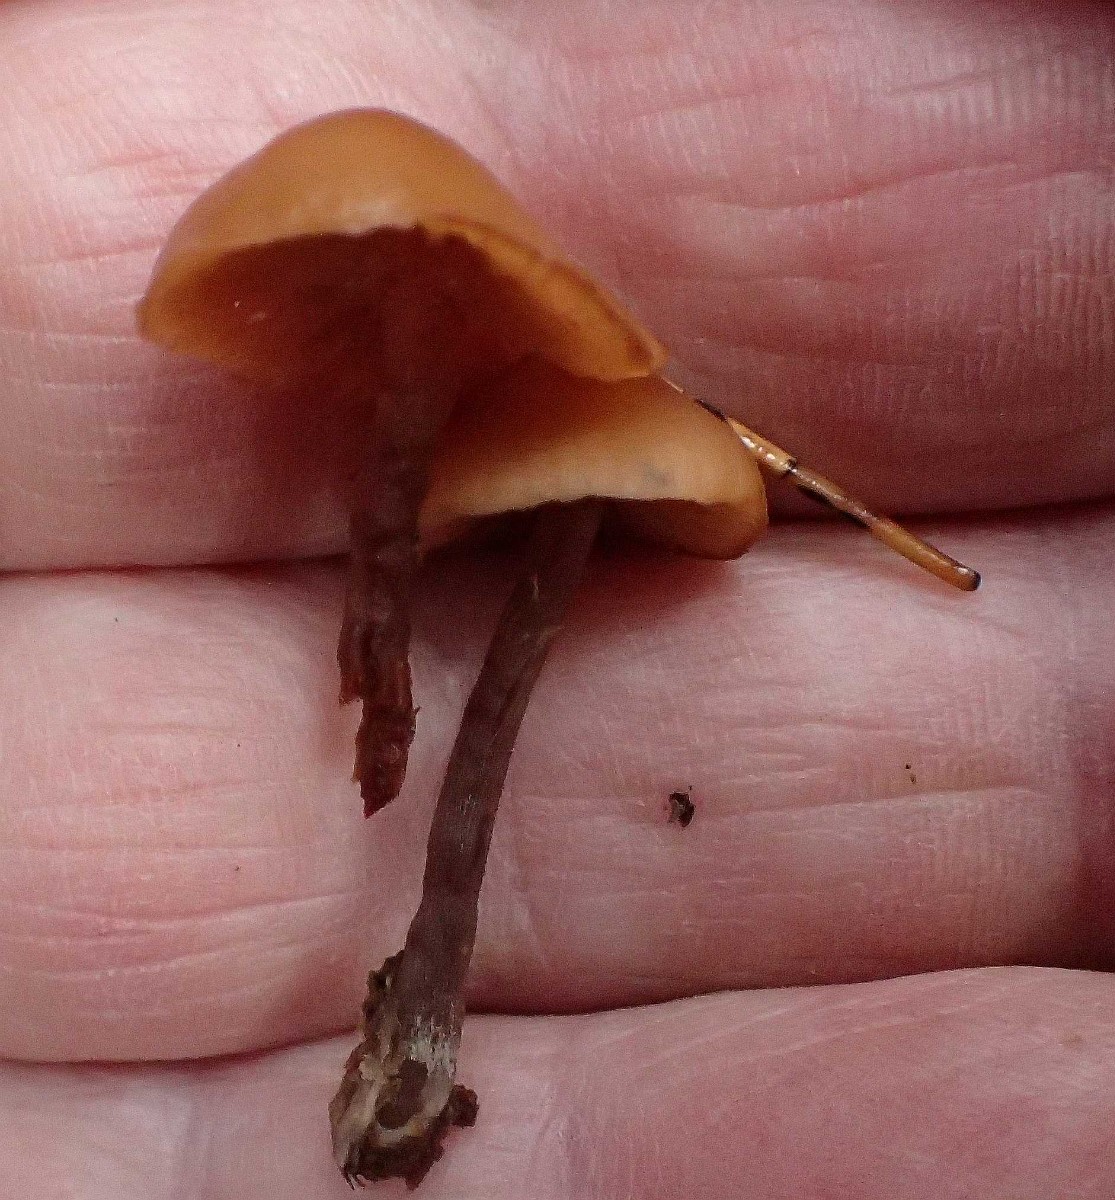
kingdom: Fungi
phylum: Basidiomycota
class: Agaricomycetes
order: Agaricales
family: Hymenogastraceae
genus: Galerina
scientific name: Galerina marginata
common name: randbæltet hjelmhat
